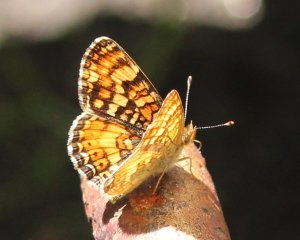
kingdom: Animalia
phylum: Arthropoda
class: Insecta
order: Lepidoptera
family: Nymphalidae
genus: Phyciodes
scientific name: Phyciodes tharos
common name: Field Crescent
